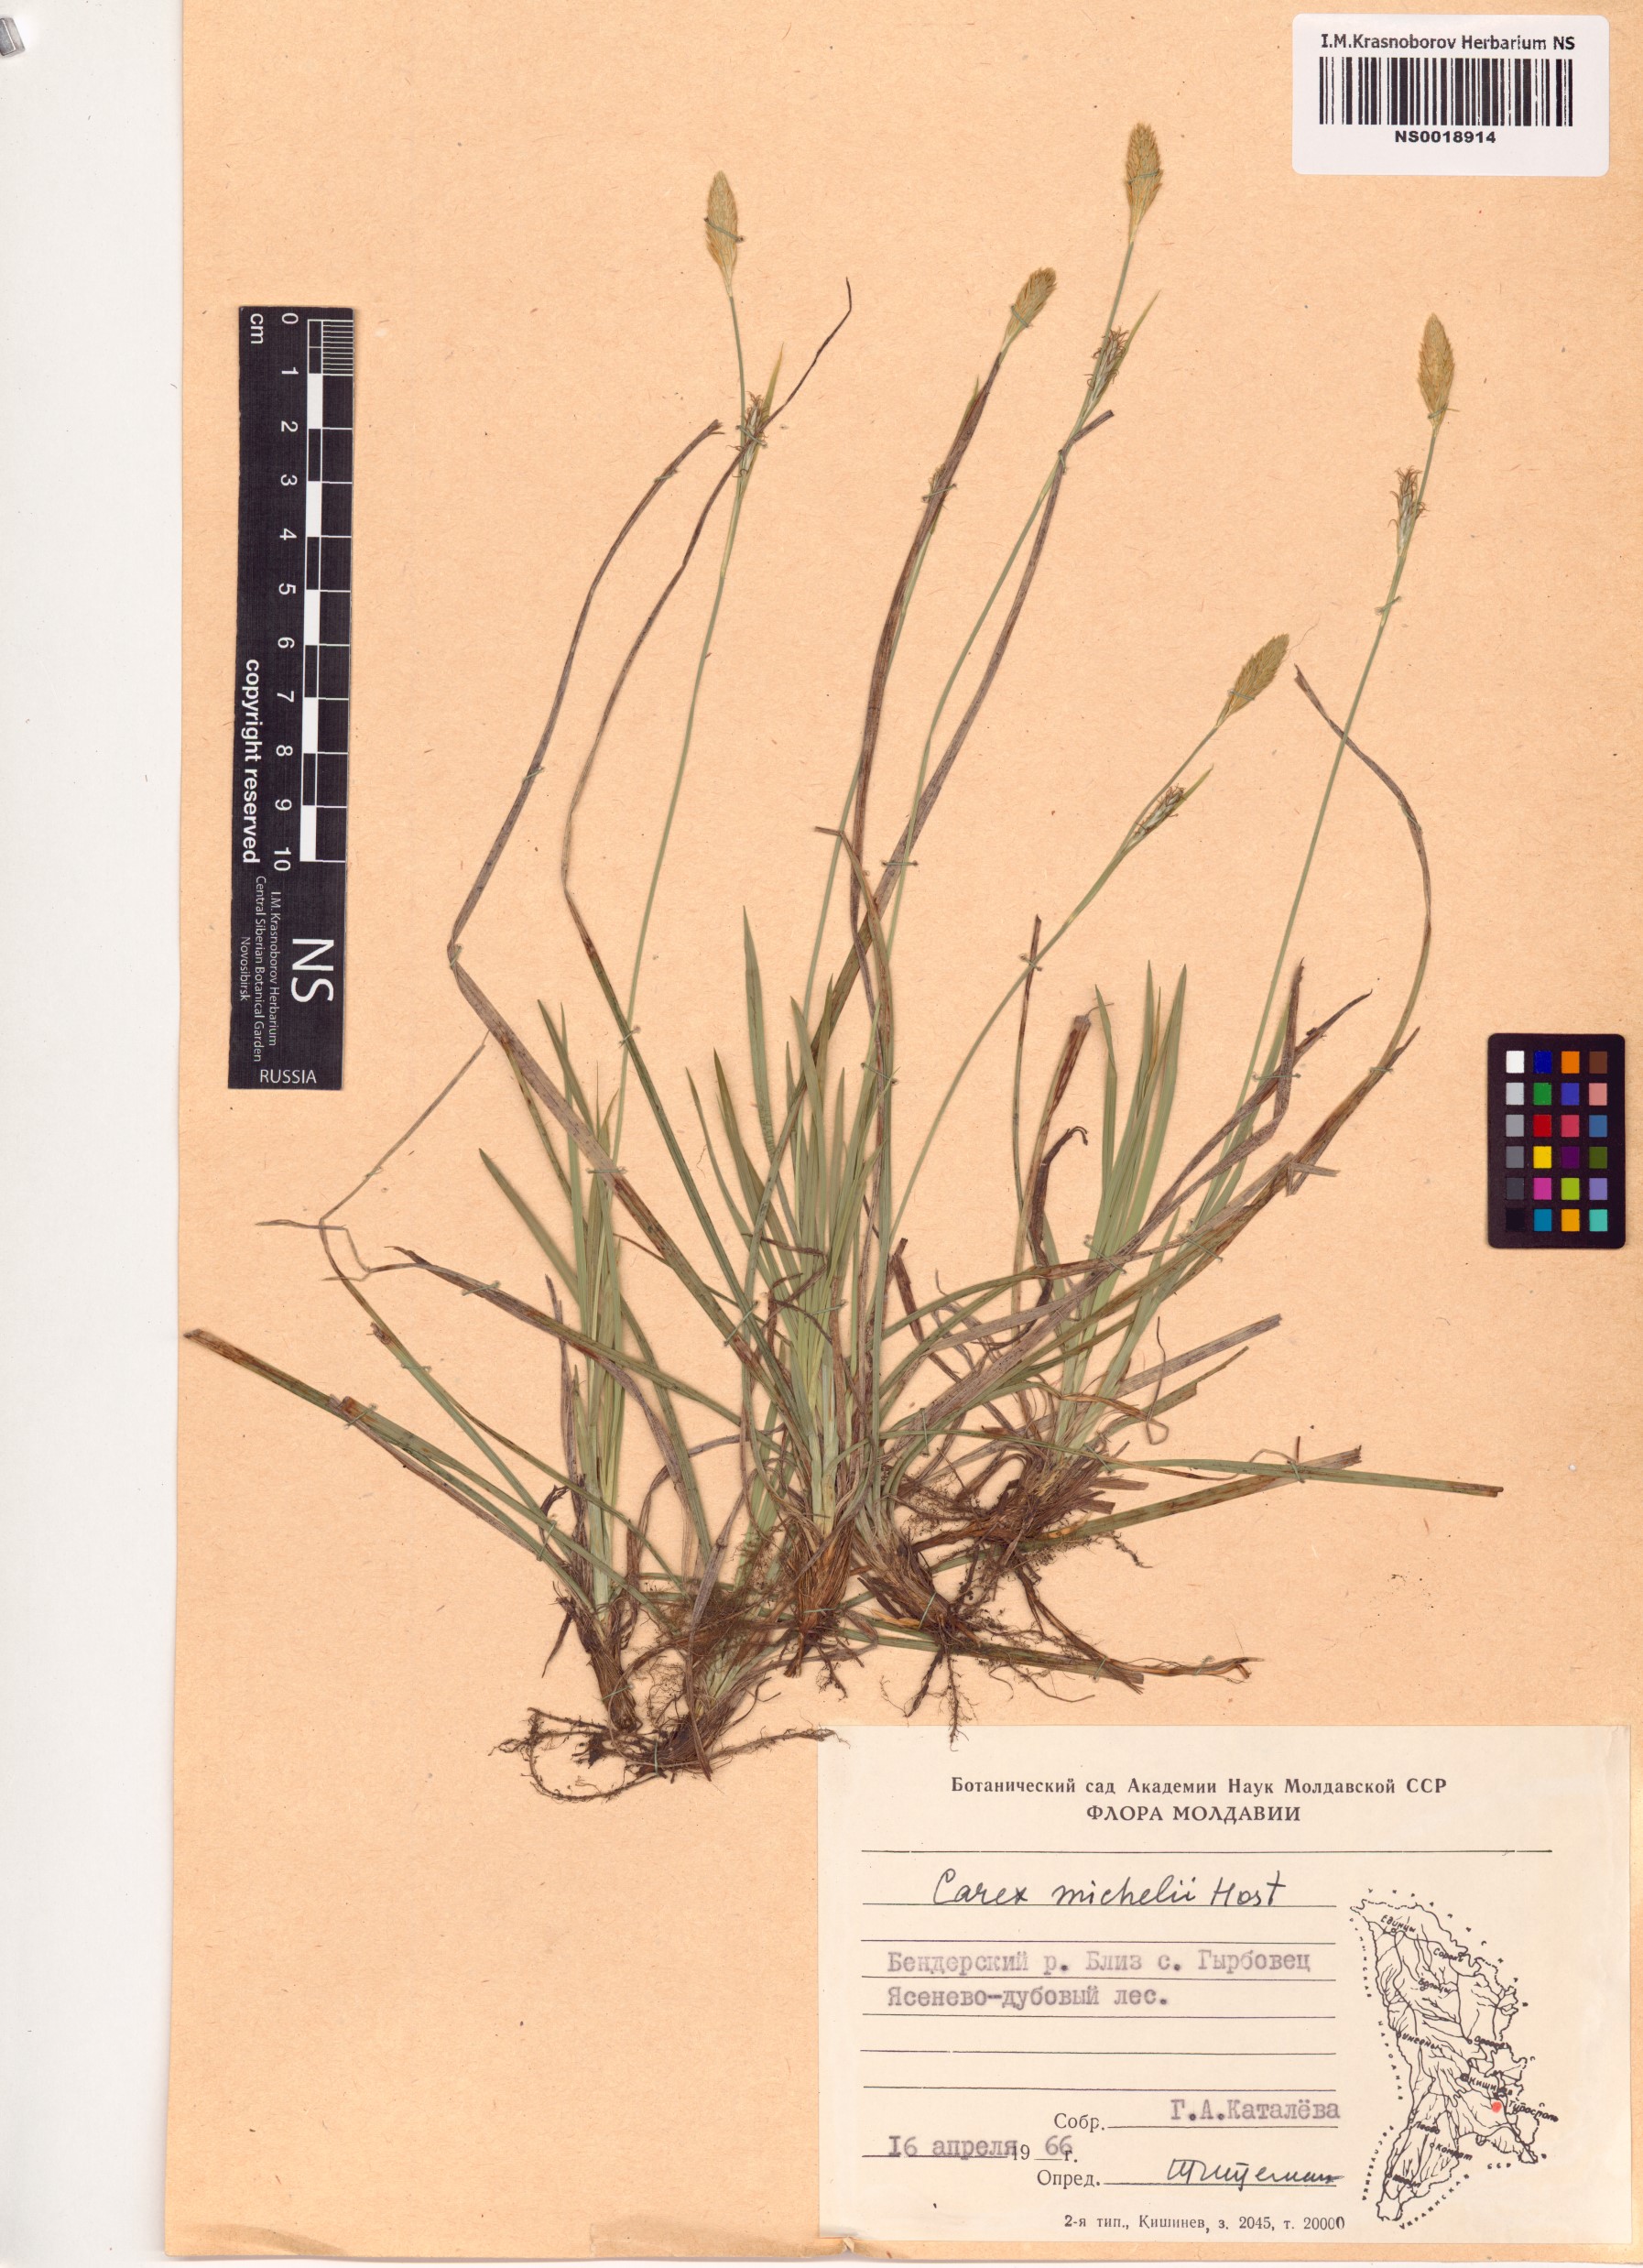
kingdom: Plantae
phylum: Tracheophyta
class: Liliopsida
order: Poales
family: Cyperaceae
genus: Carex
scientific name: Carex michelii
